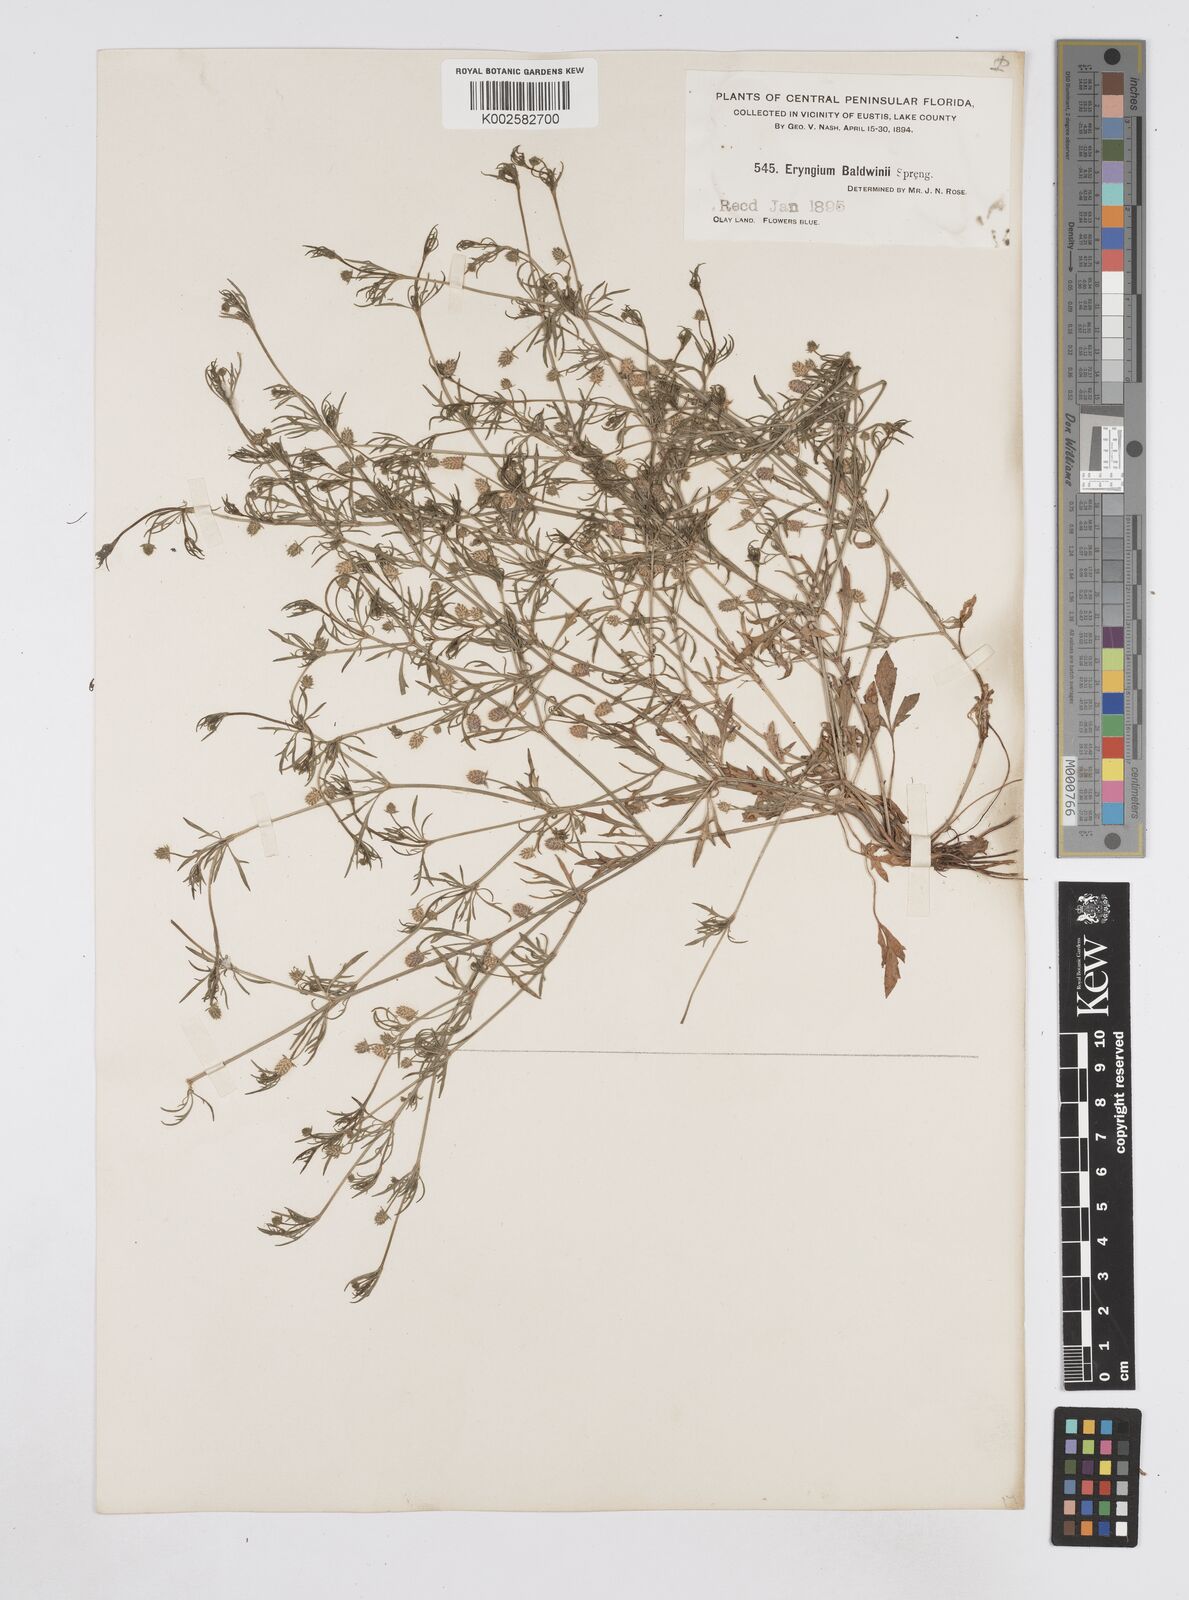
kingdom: Plantae
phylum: Tracheophyta
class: Magnoliopsida
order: Apiales
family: Apiaceae
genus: Eryngium
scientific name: Eryngium baldwinii
